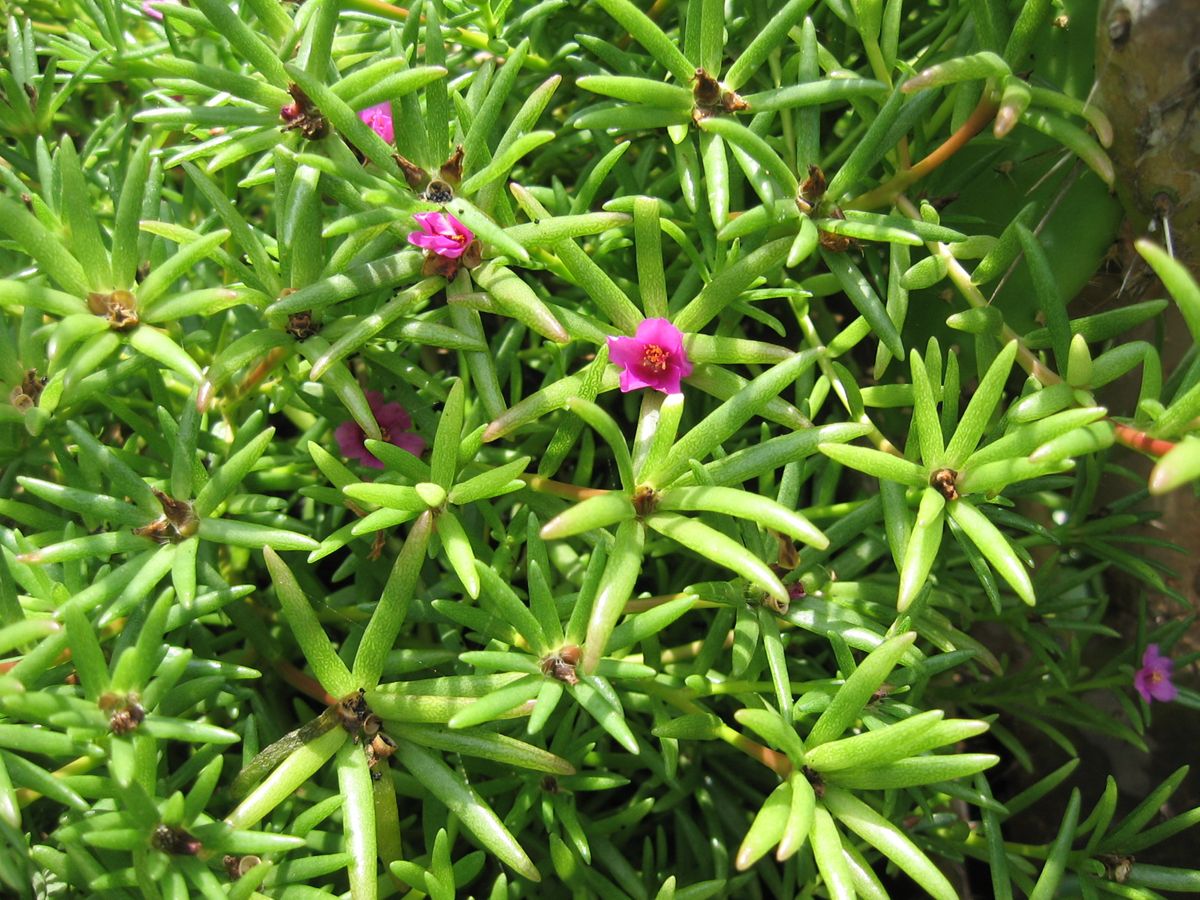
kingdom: Plantae
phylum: Tracheophyta
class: Magnoliopsida
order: Caryophyllales
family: Portulacaceae
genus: Portulaca
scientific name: Portulaca pilosa
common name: Kiss me quick
